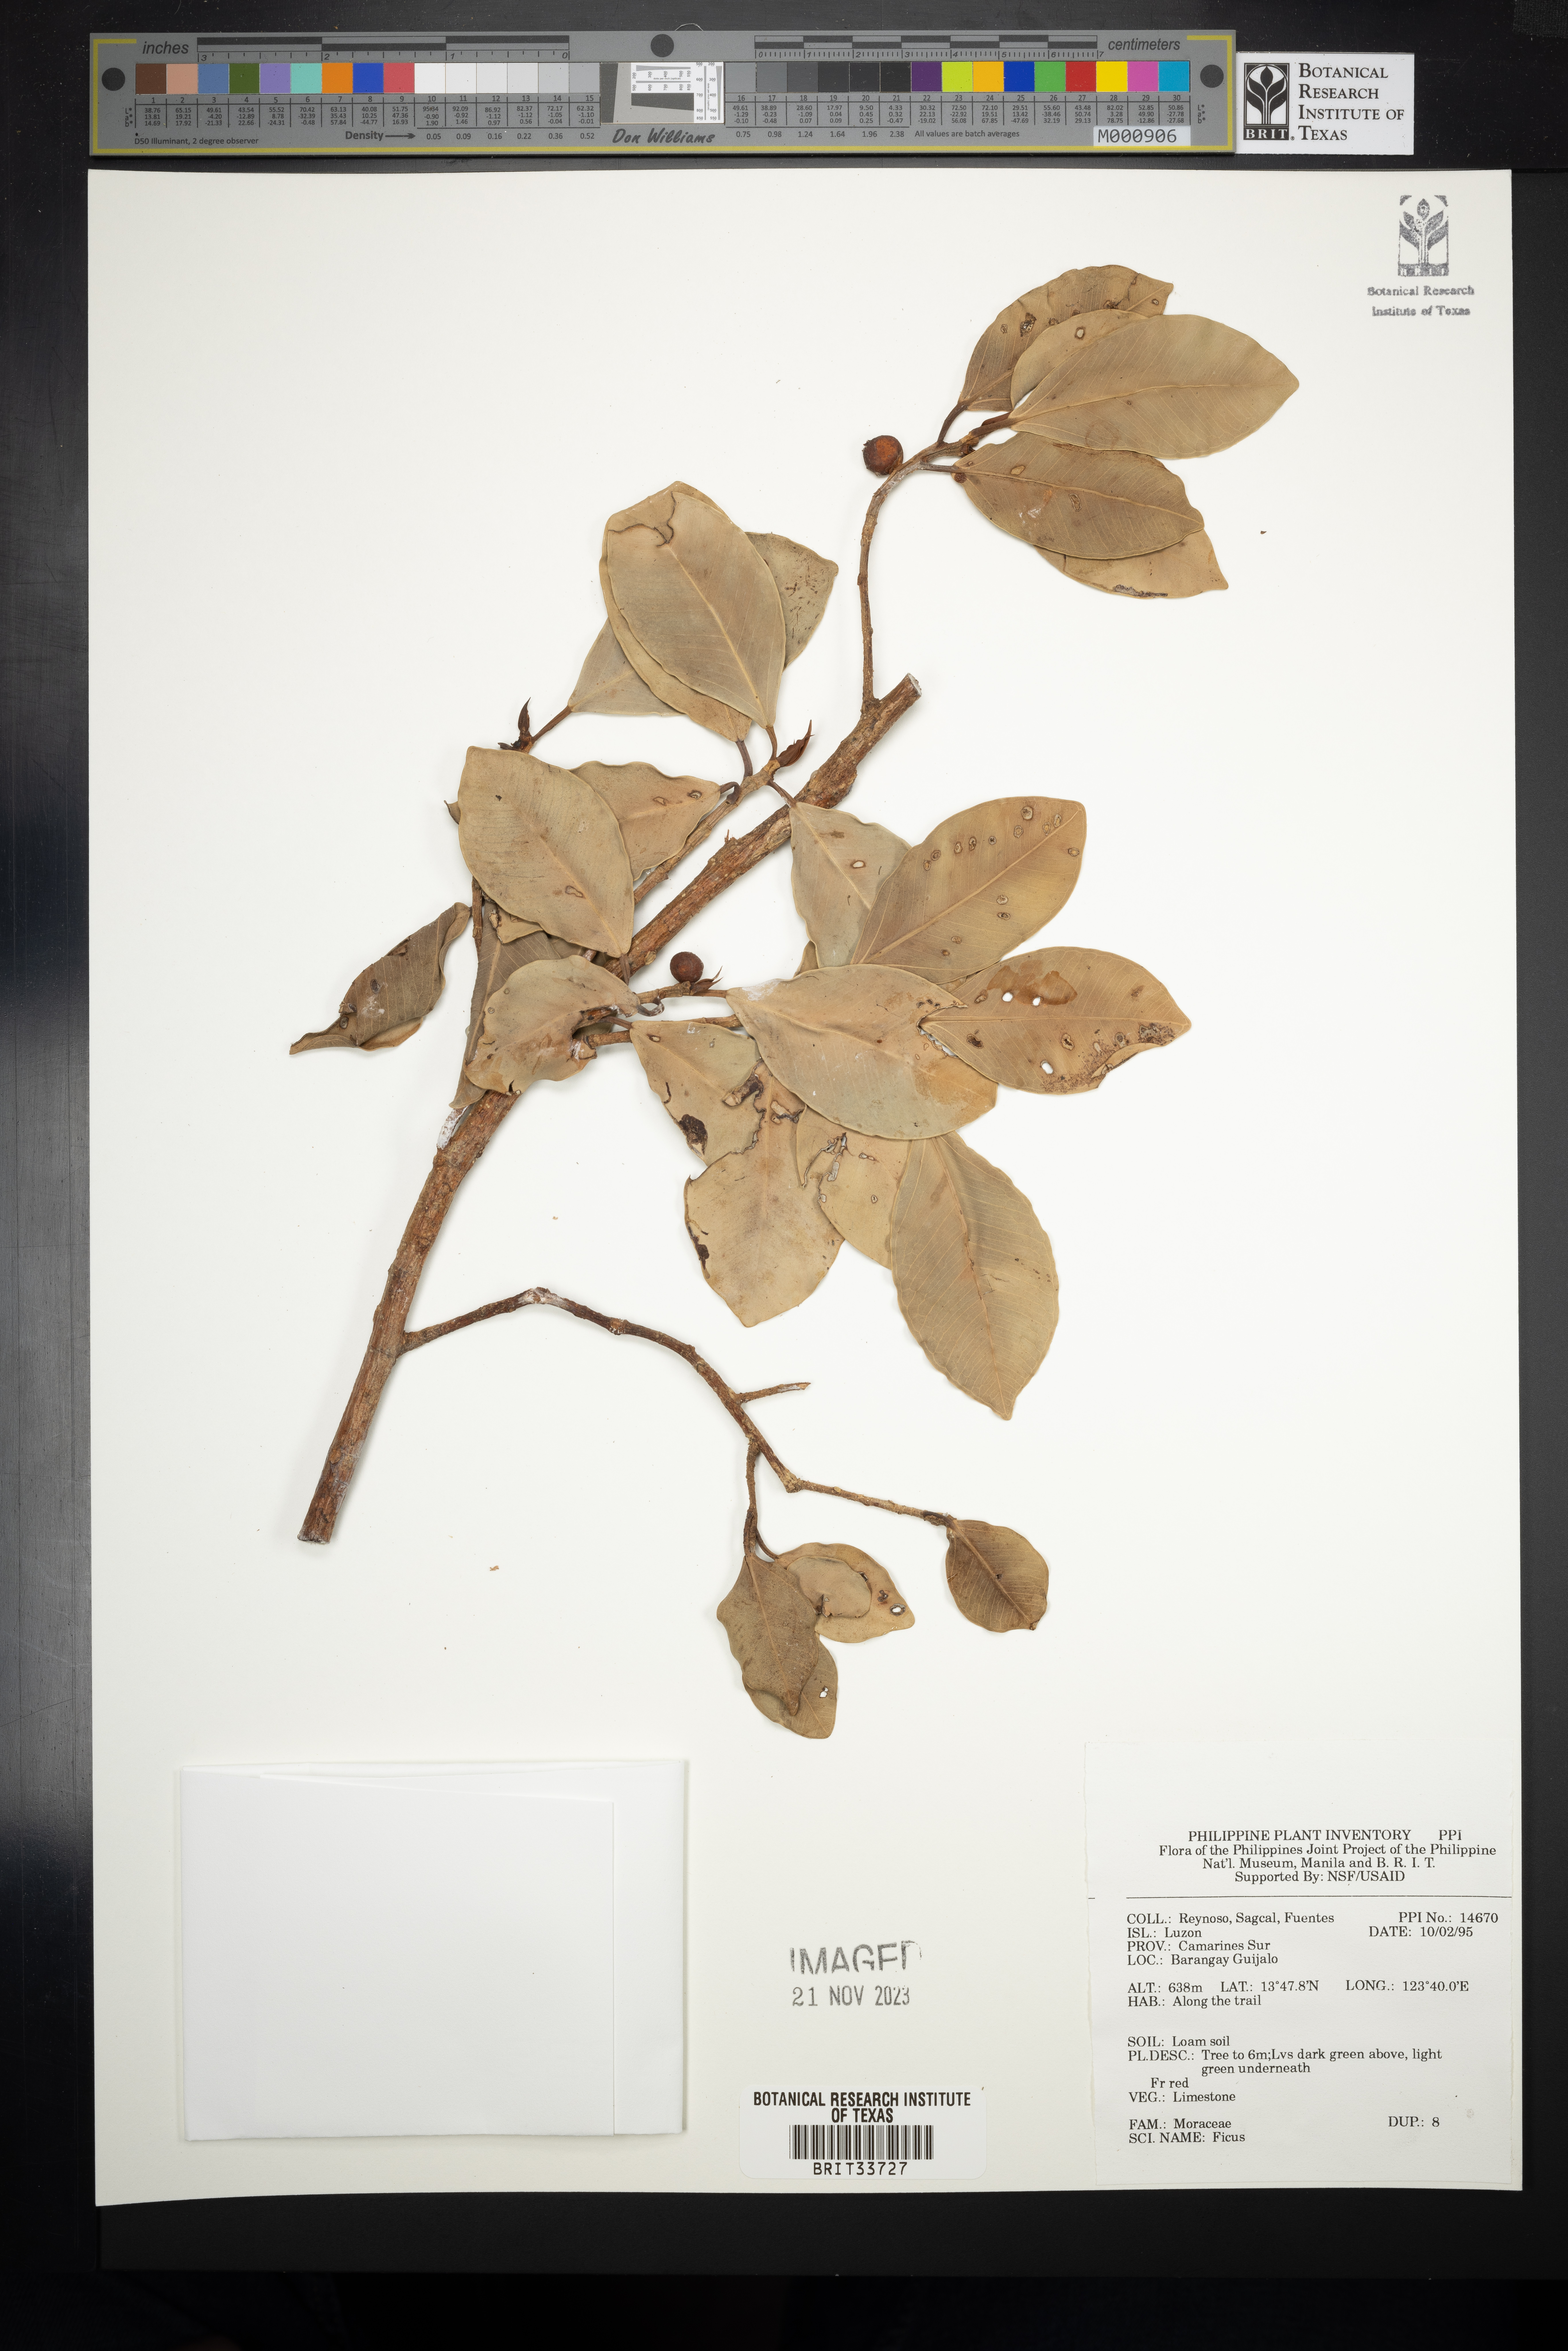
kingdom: Plantae
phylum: Tracheophyta
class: Magnoliopsida
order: Rosales
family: Moraceae
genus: Ficus
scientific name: Ficus
